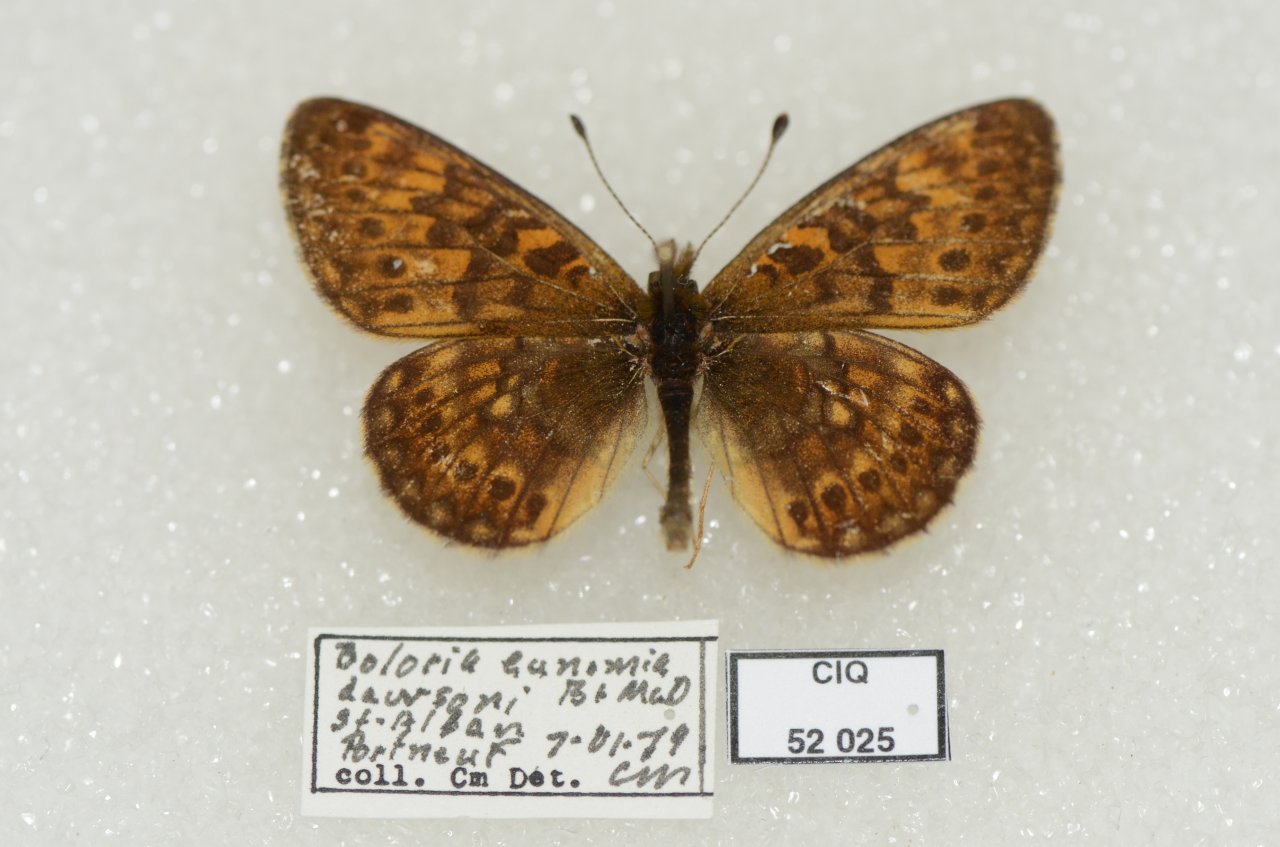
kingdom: Animalia
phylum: Arthropoda
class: Insecta
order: Lepidoptera
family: Nymphalidae
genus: Boloria
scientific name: Boloria eunomia
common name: Bog Fritillary
